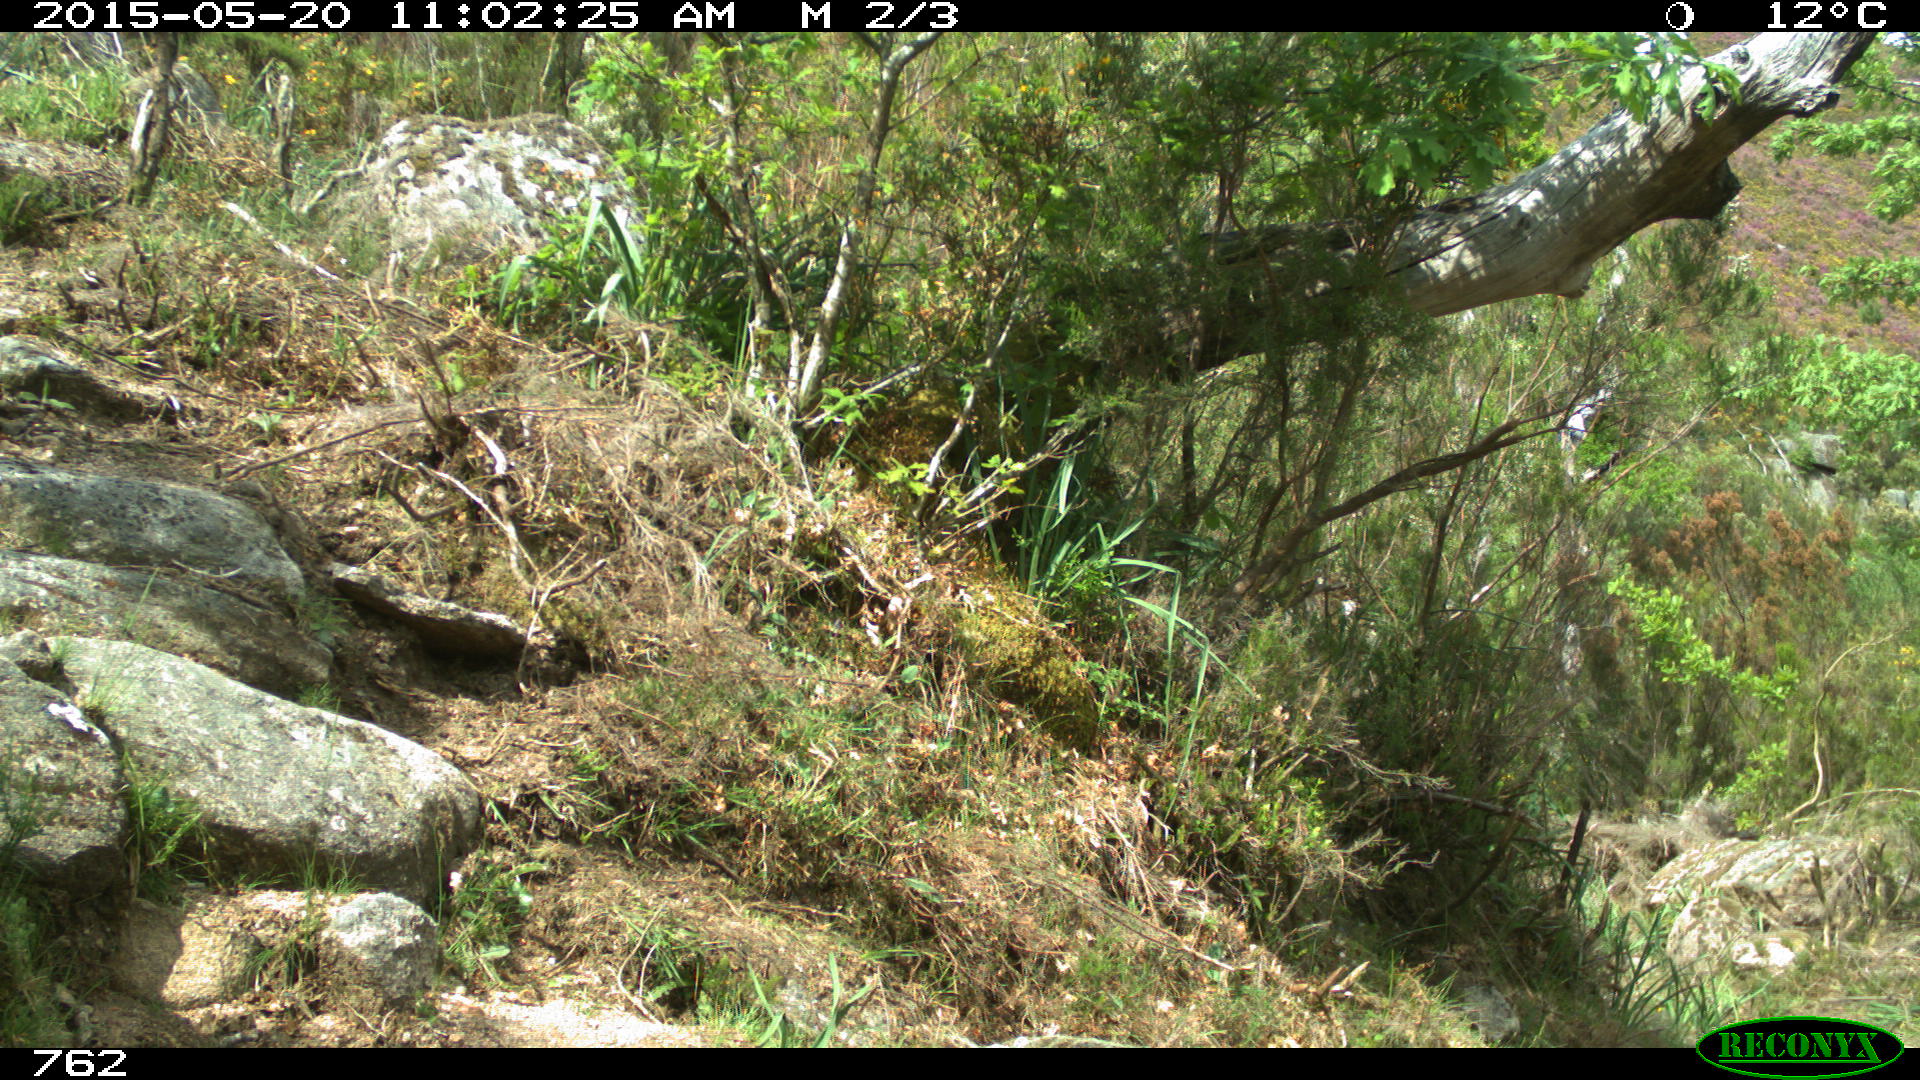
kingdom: Animalia
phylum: Chordata
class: Mammalia
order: Artiodactyla
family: Cervidae
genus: Capreolus
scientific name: Capreolus capreolus
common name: Western roe deer
